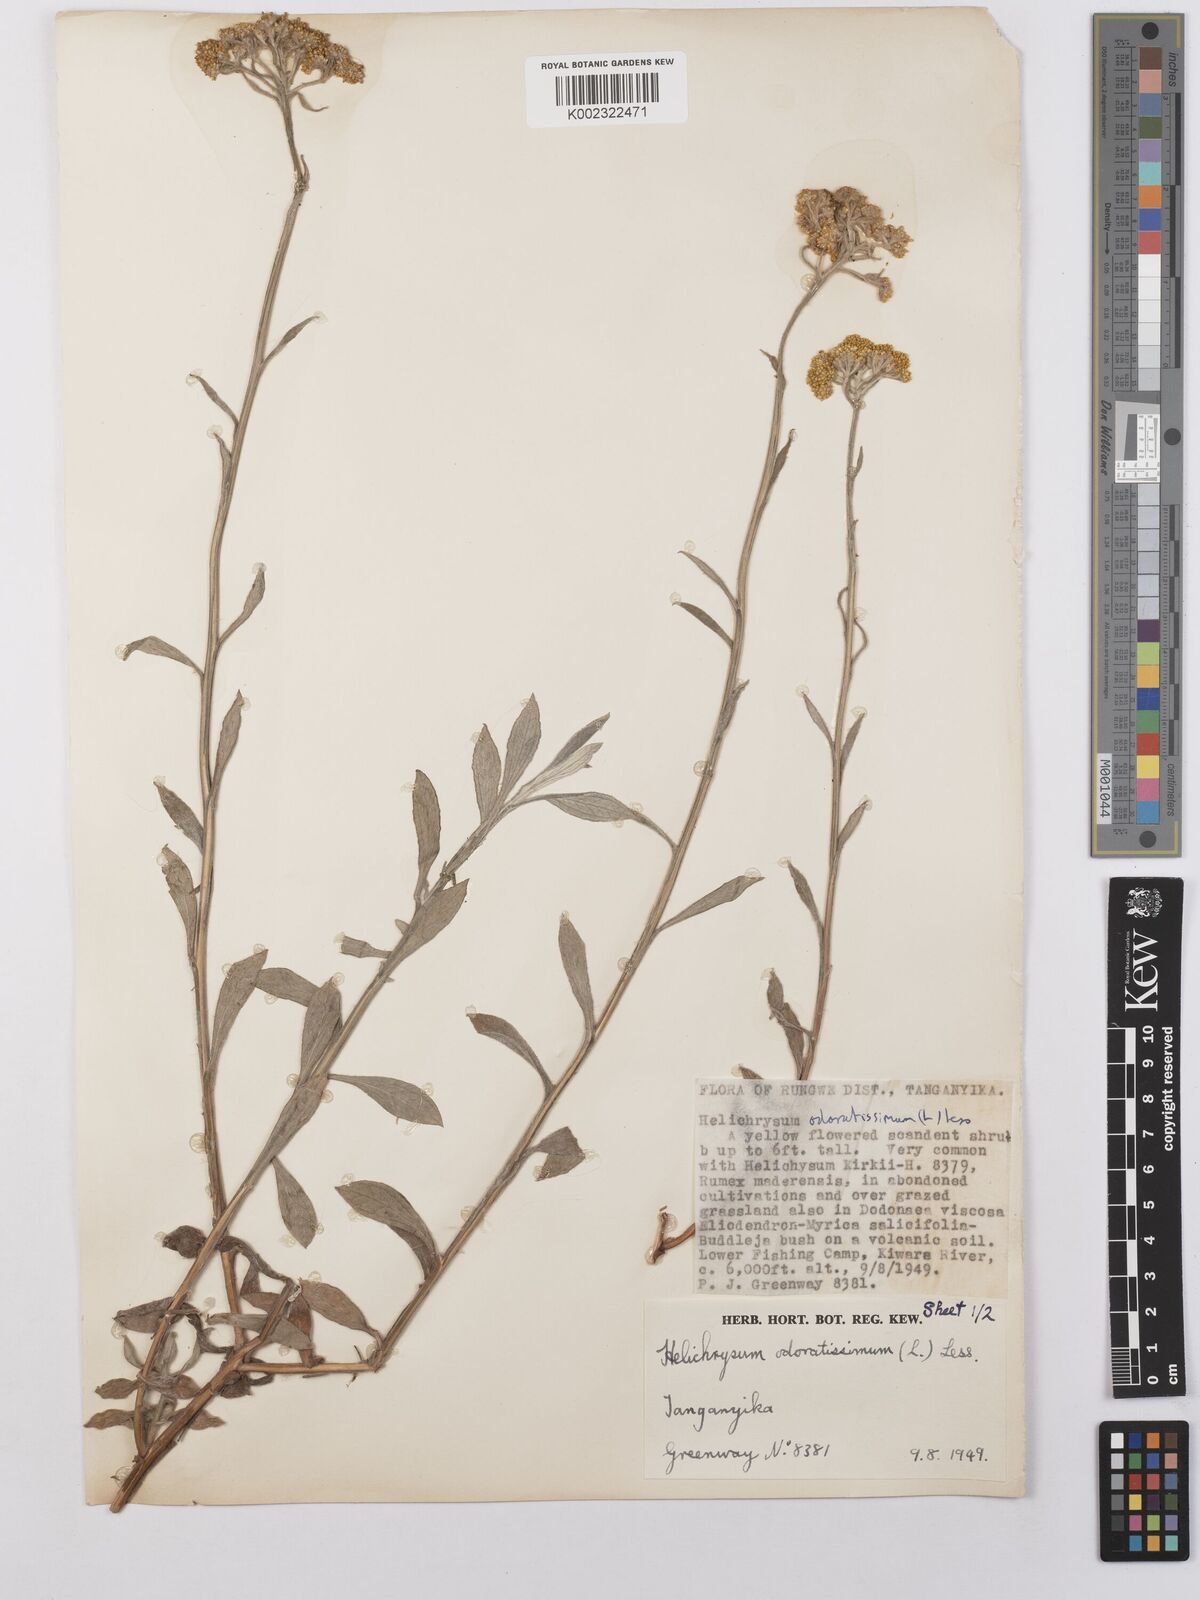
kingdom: Plantae
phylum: Tracheophyta
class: Magnoliopsida
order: Asterales
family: Asteraceae
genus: Helichrysum
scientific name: Helichrysum stenopterum
